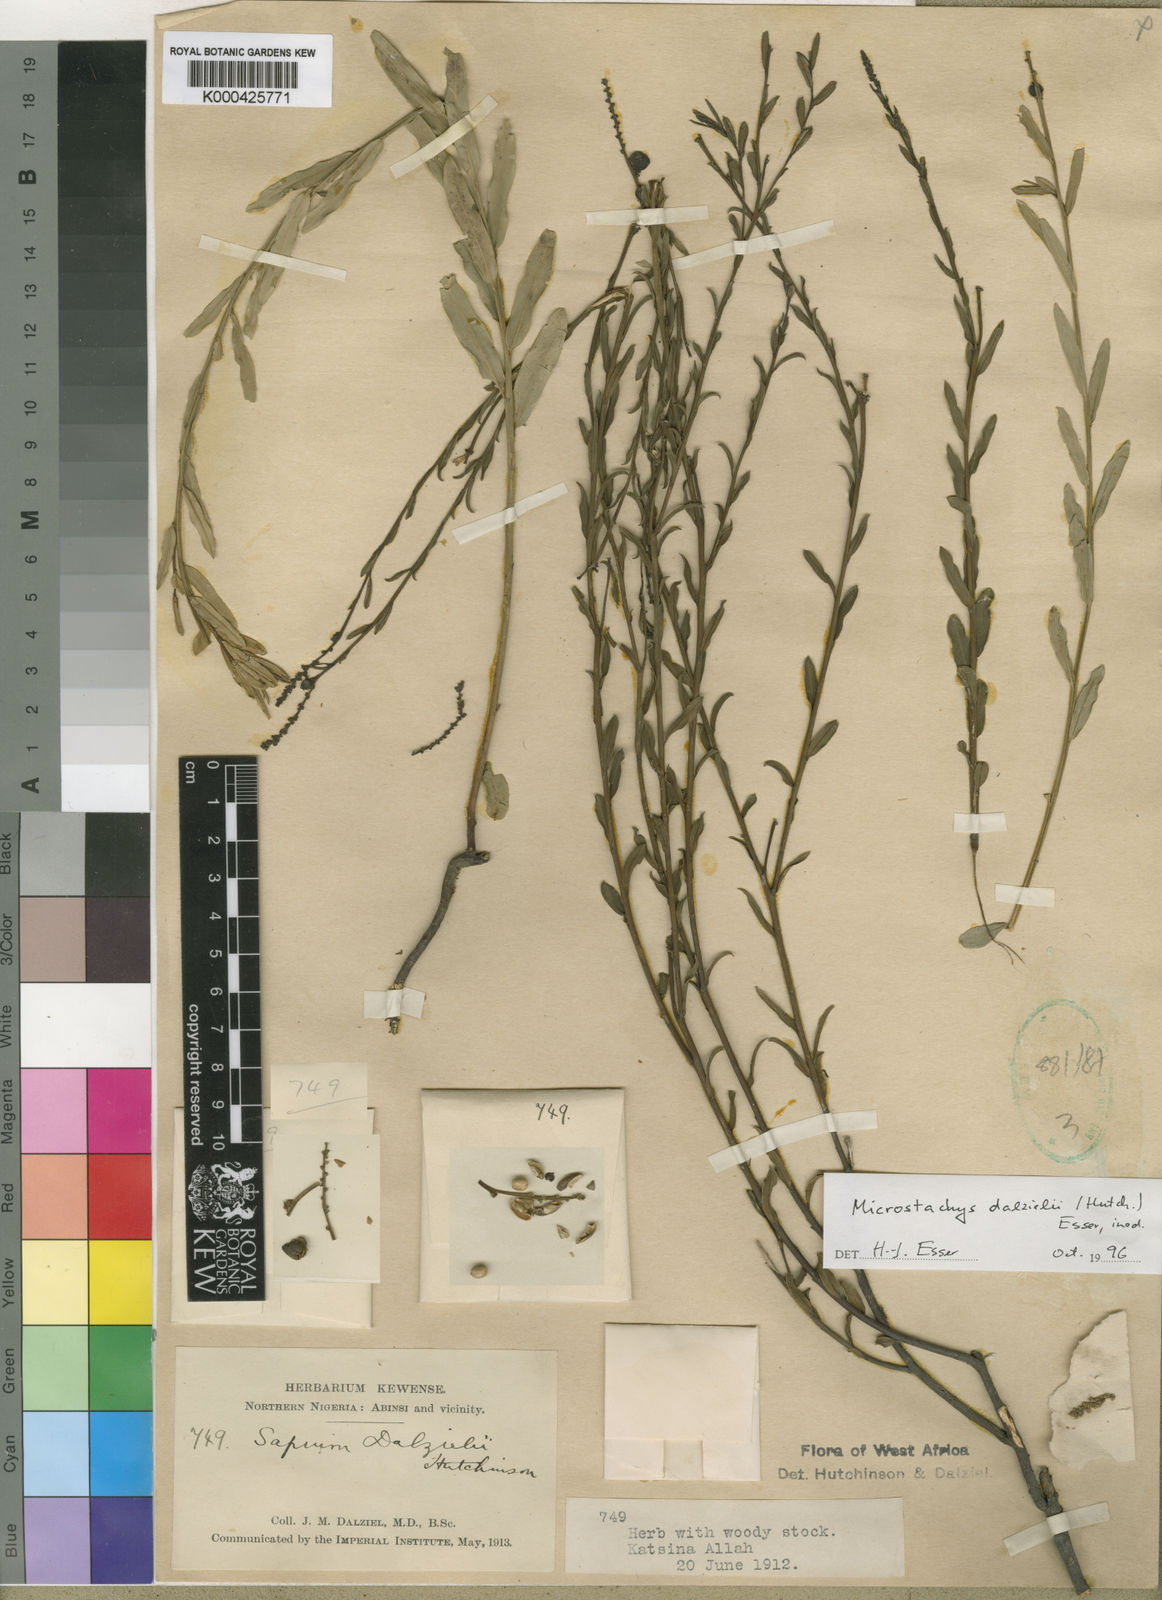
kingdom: Plantae
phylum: Tracheophyta
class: Magnoliopsida
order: Malpighiales
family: Euphorbiaceae
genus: Microstachys
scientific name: Microstachys dalzielii
